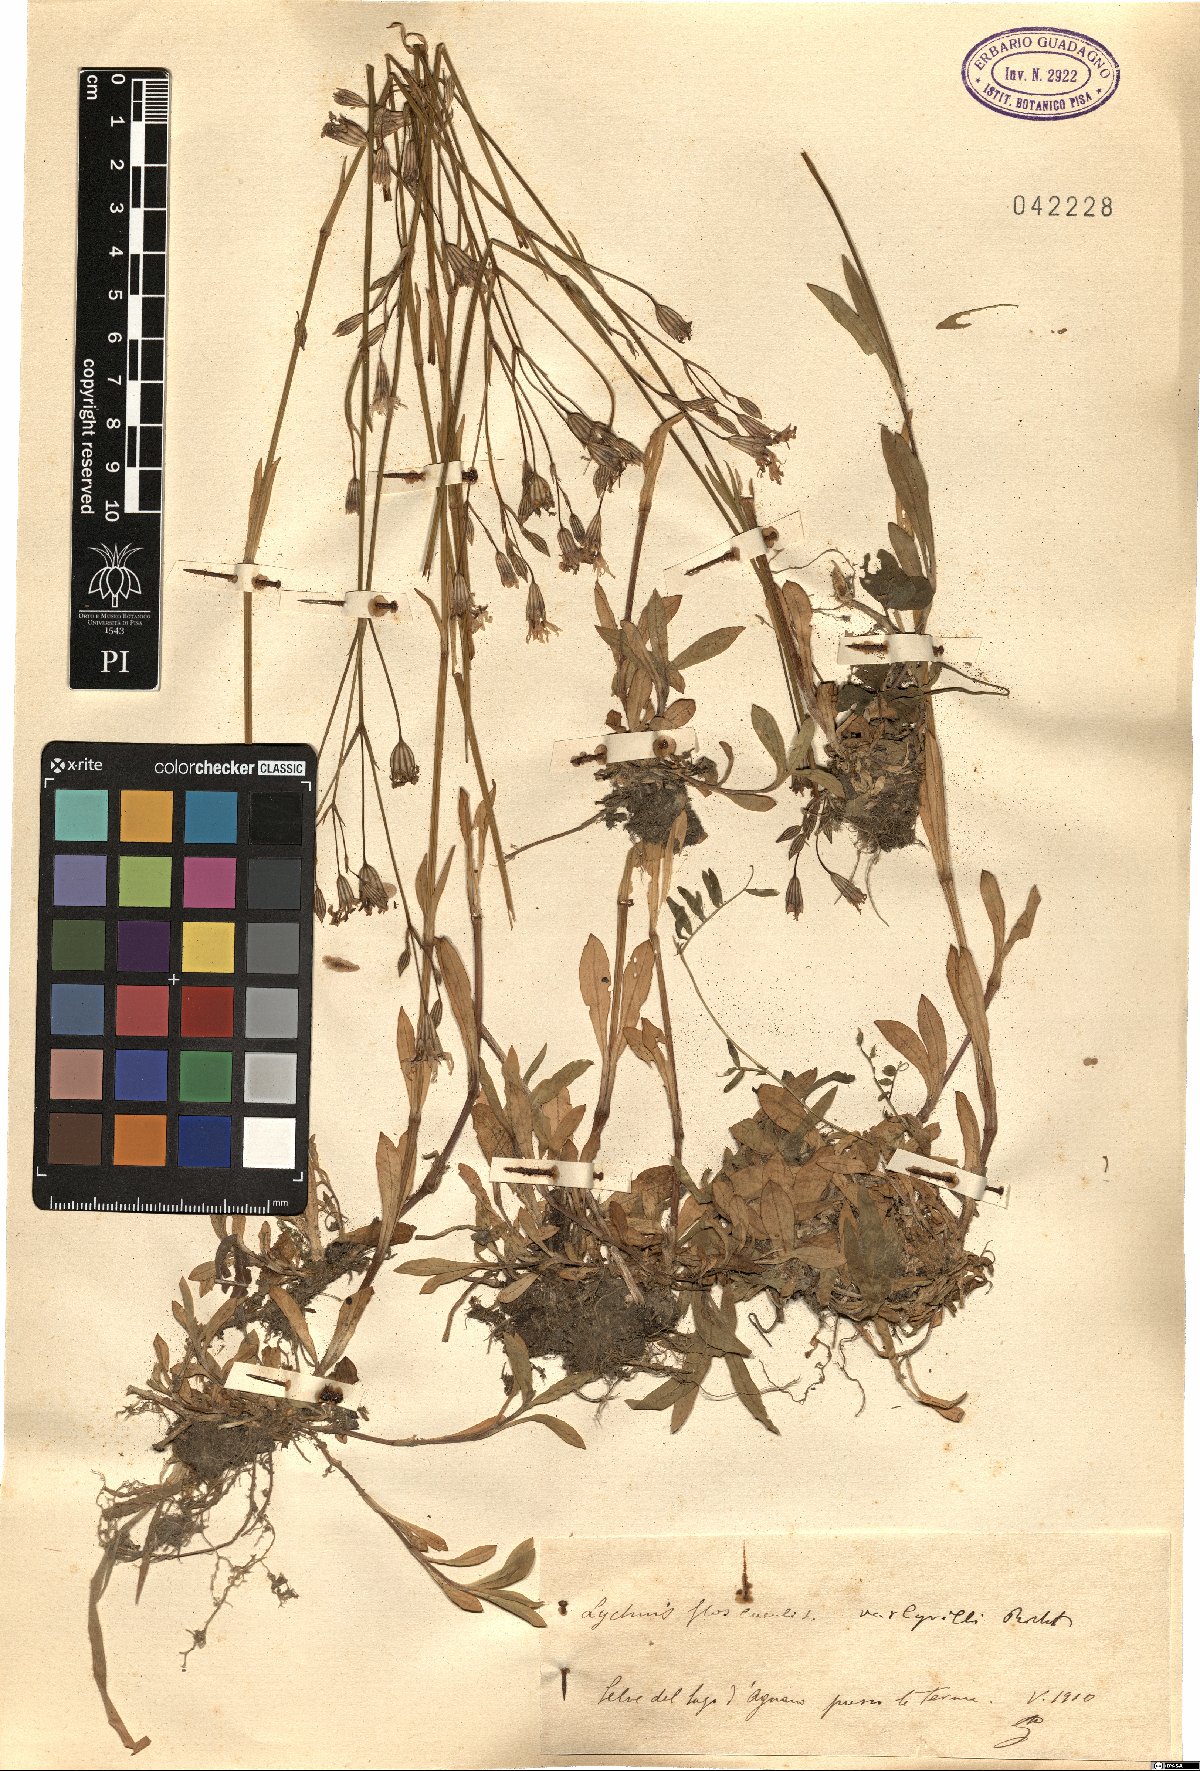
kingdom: Plantae
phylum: Tracheophyta
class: Magnoliopsida
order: Caryophyllales
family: Caryophyllaceae
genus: Silene
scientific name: Silene flos-cuculi
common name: Ragged-robin
